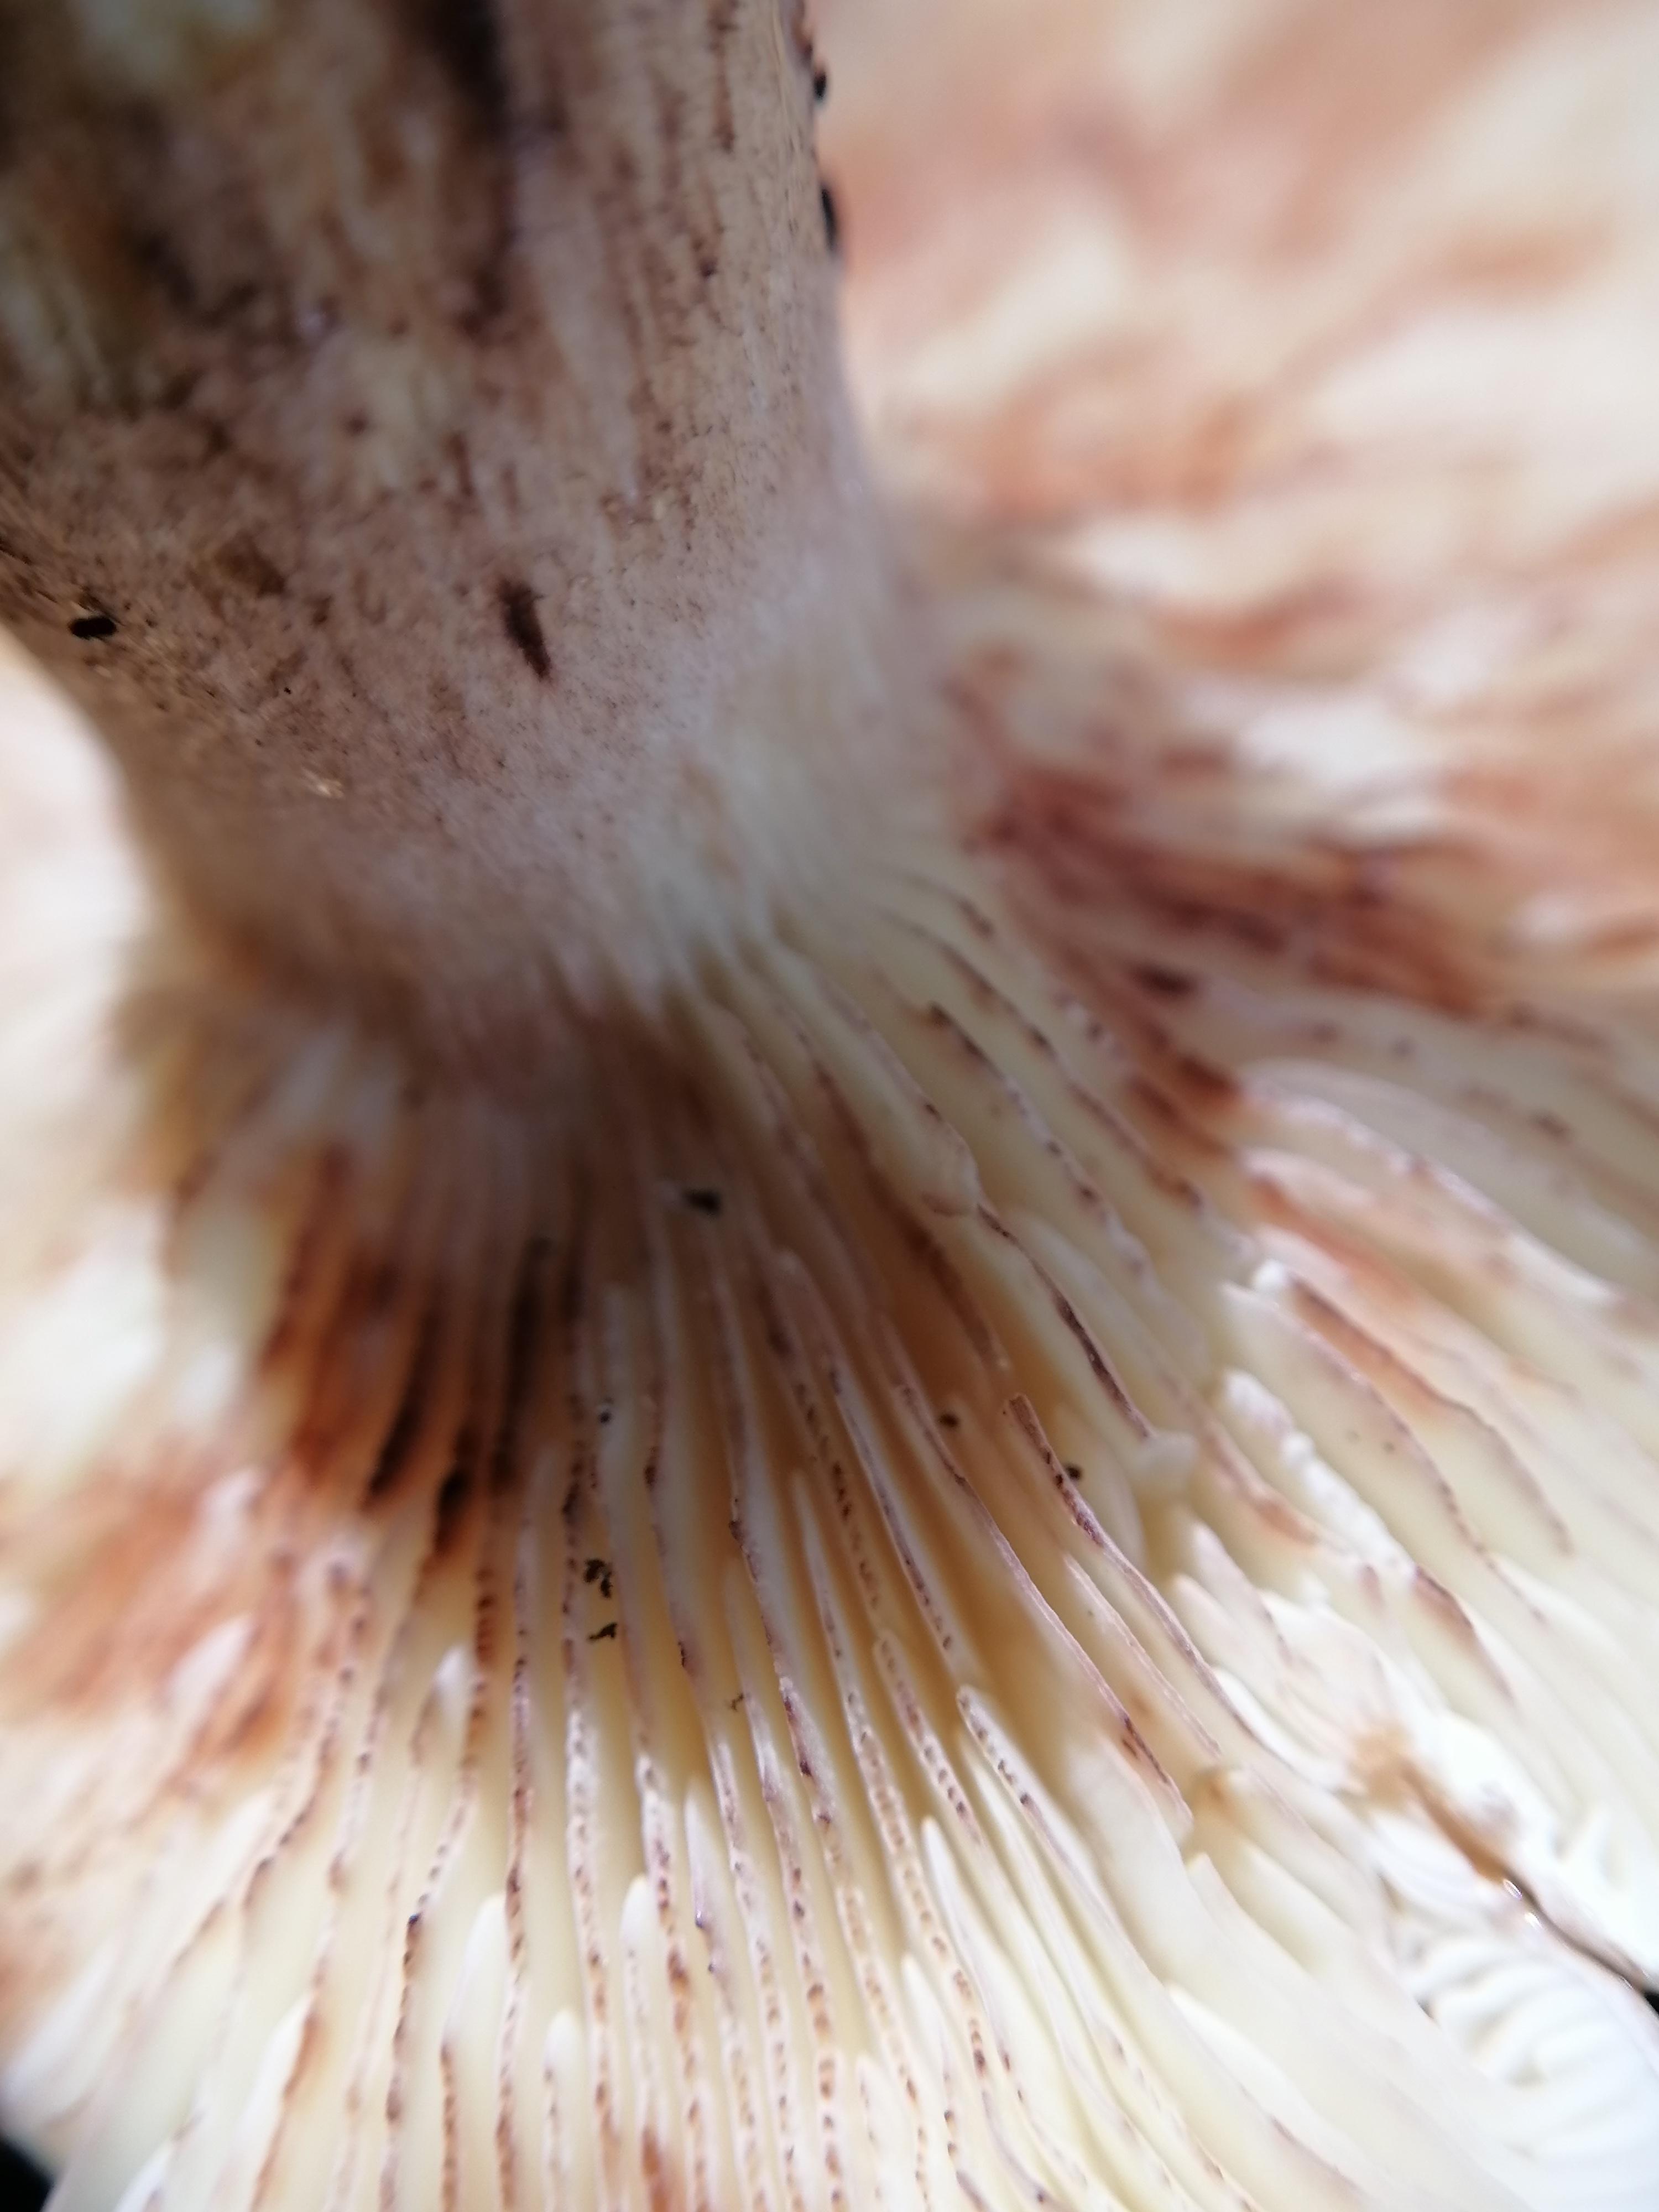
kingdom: Fungi
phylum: Basidiomycota
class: Agaricomycetes
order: Agaricales
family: Tricholomataceae
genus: Tricholoma
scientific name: Tricholoma fulvum
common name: birke-ridderhat
